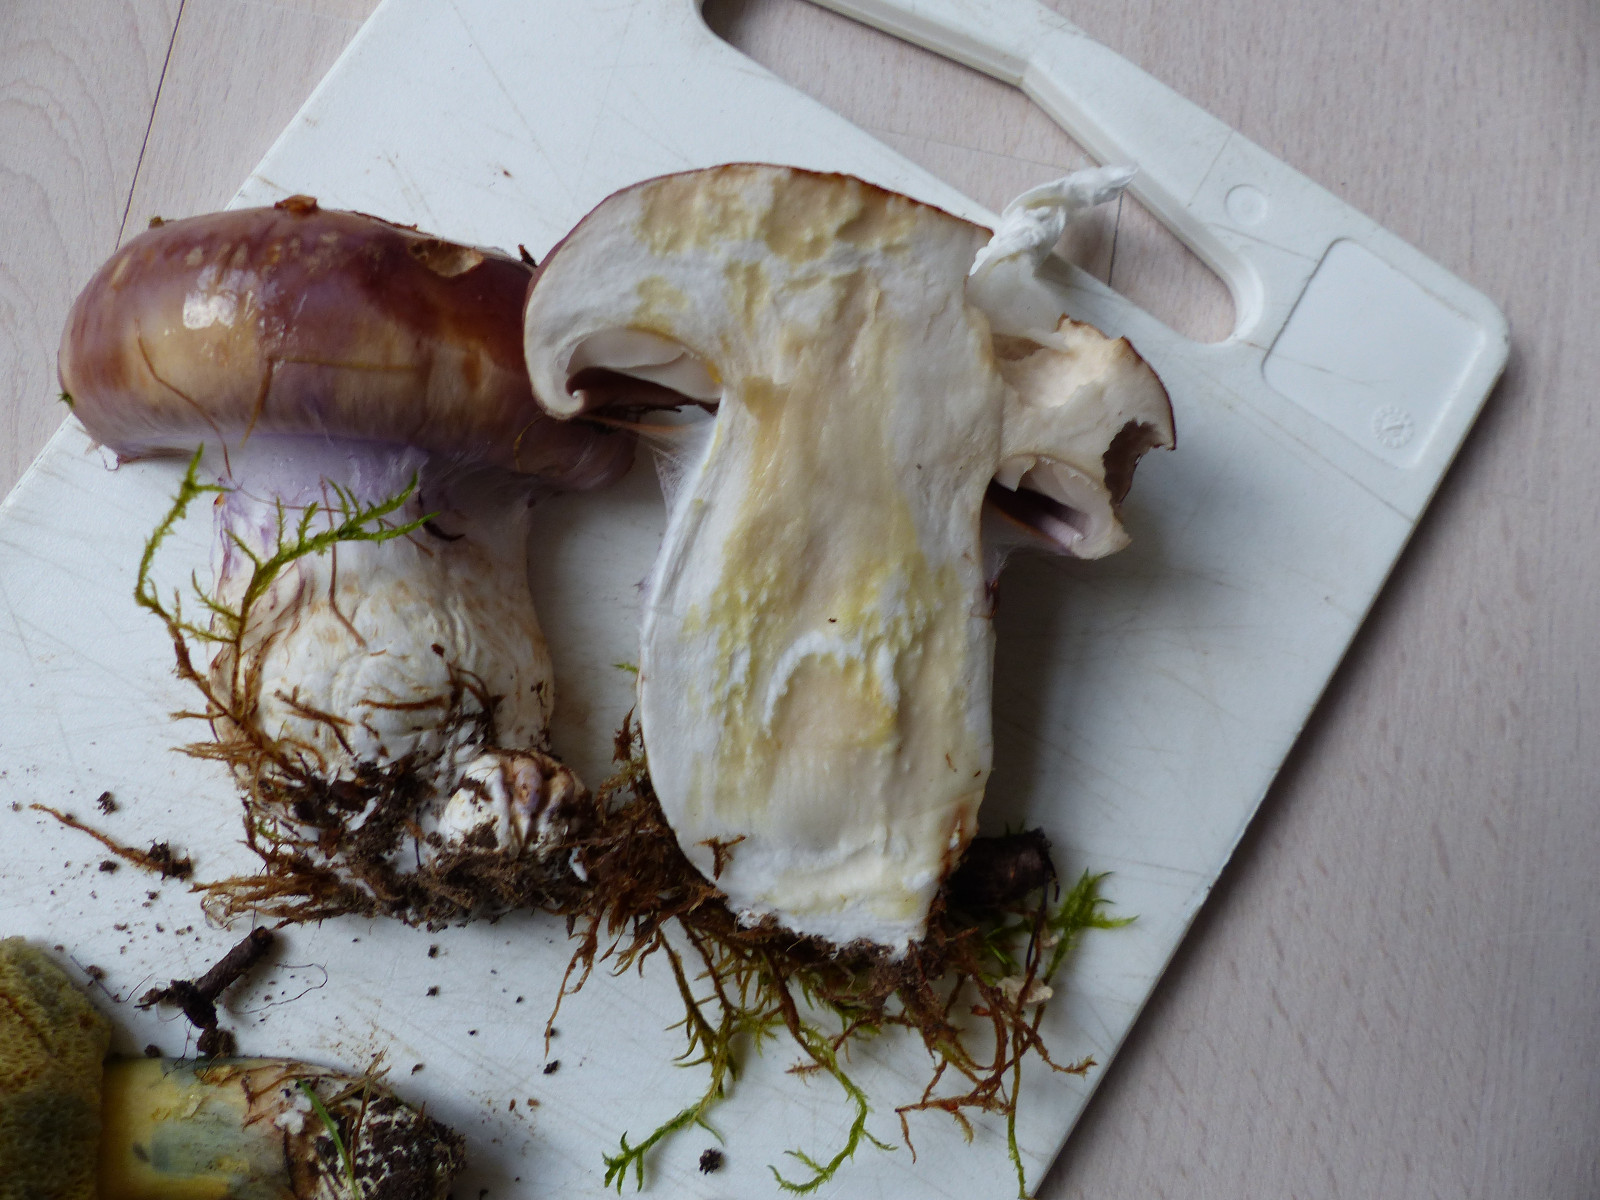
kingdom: Fungi
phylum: Basidiomycota
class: Agaricomycetes
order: Agaricales
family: Cortinariaceae
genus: Phlegmacium
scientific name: Phlegmacium balteatocumatile
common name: violettrådet slørhat
